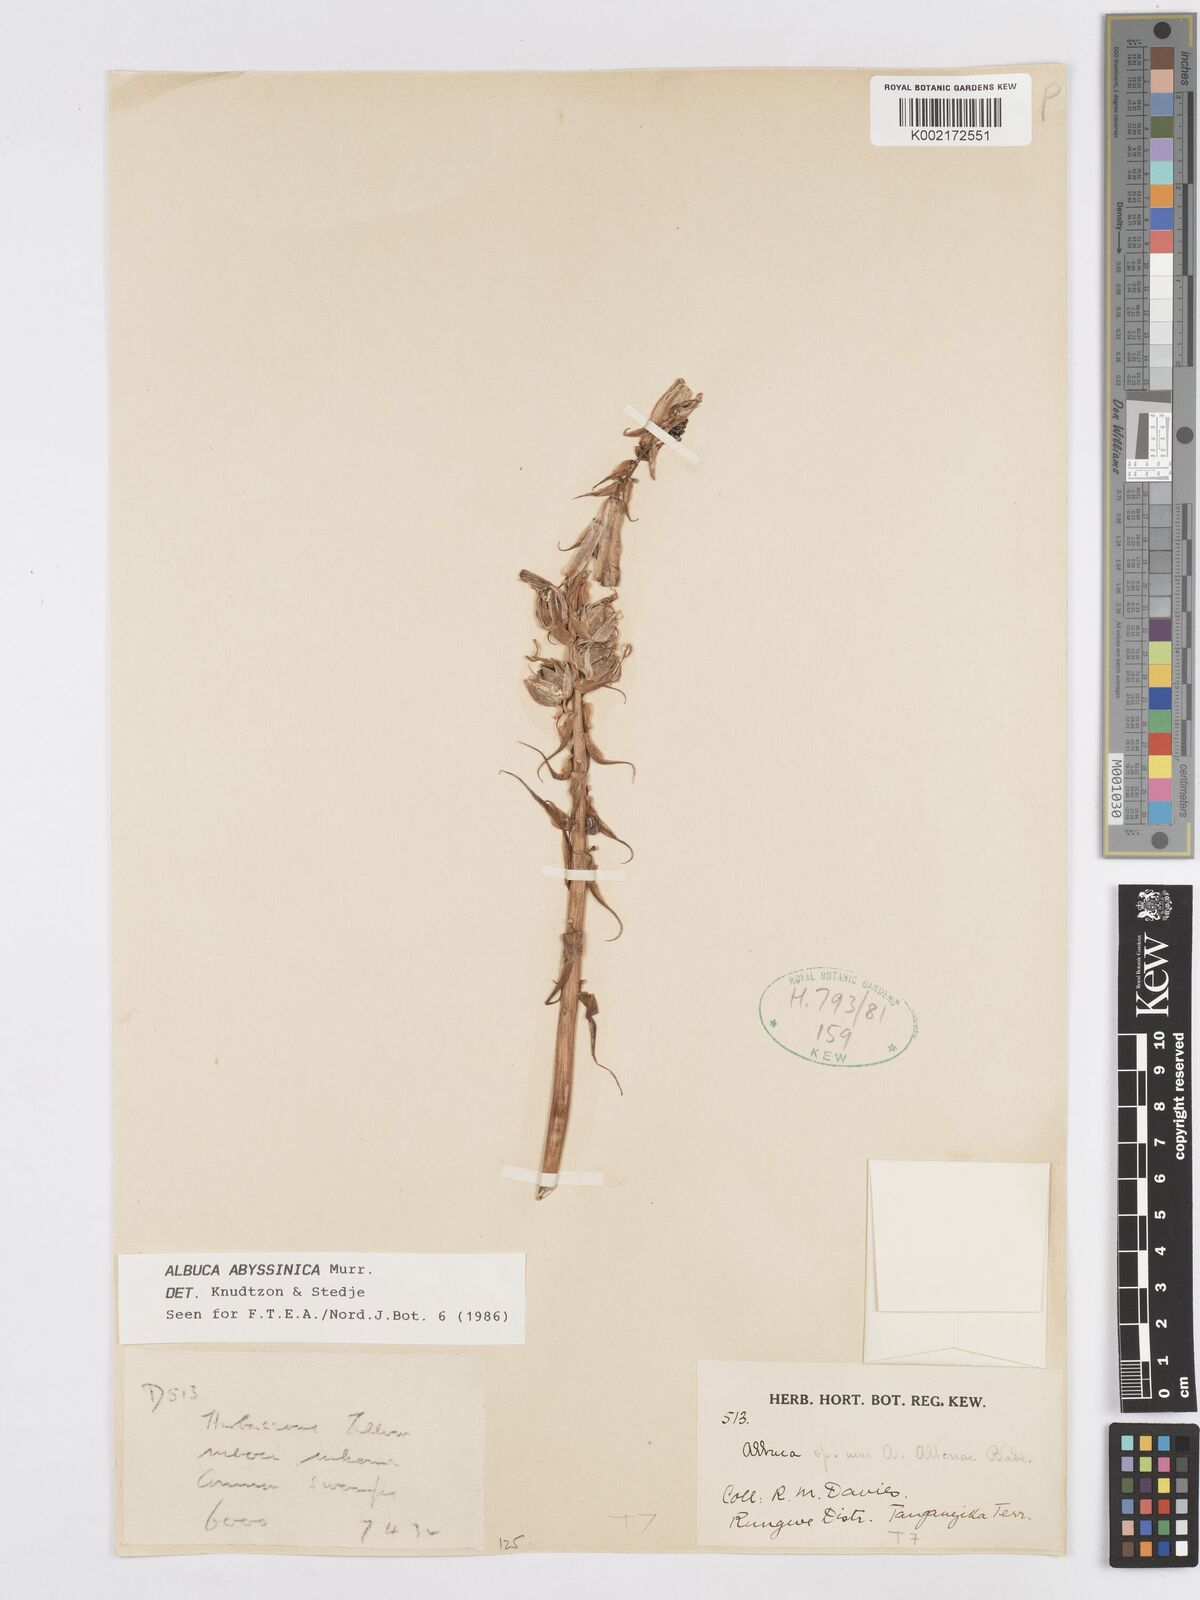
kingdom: Plantae
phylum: Tracheophyta
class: Liliopsida
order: Asparagales
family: Asparagaceae
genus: Albuca
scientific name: Albuca abyssinica
